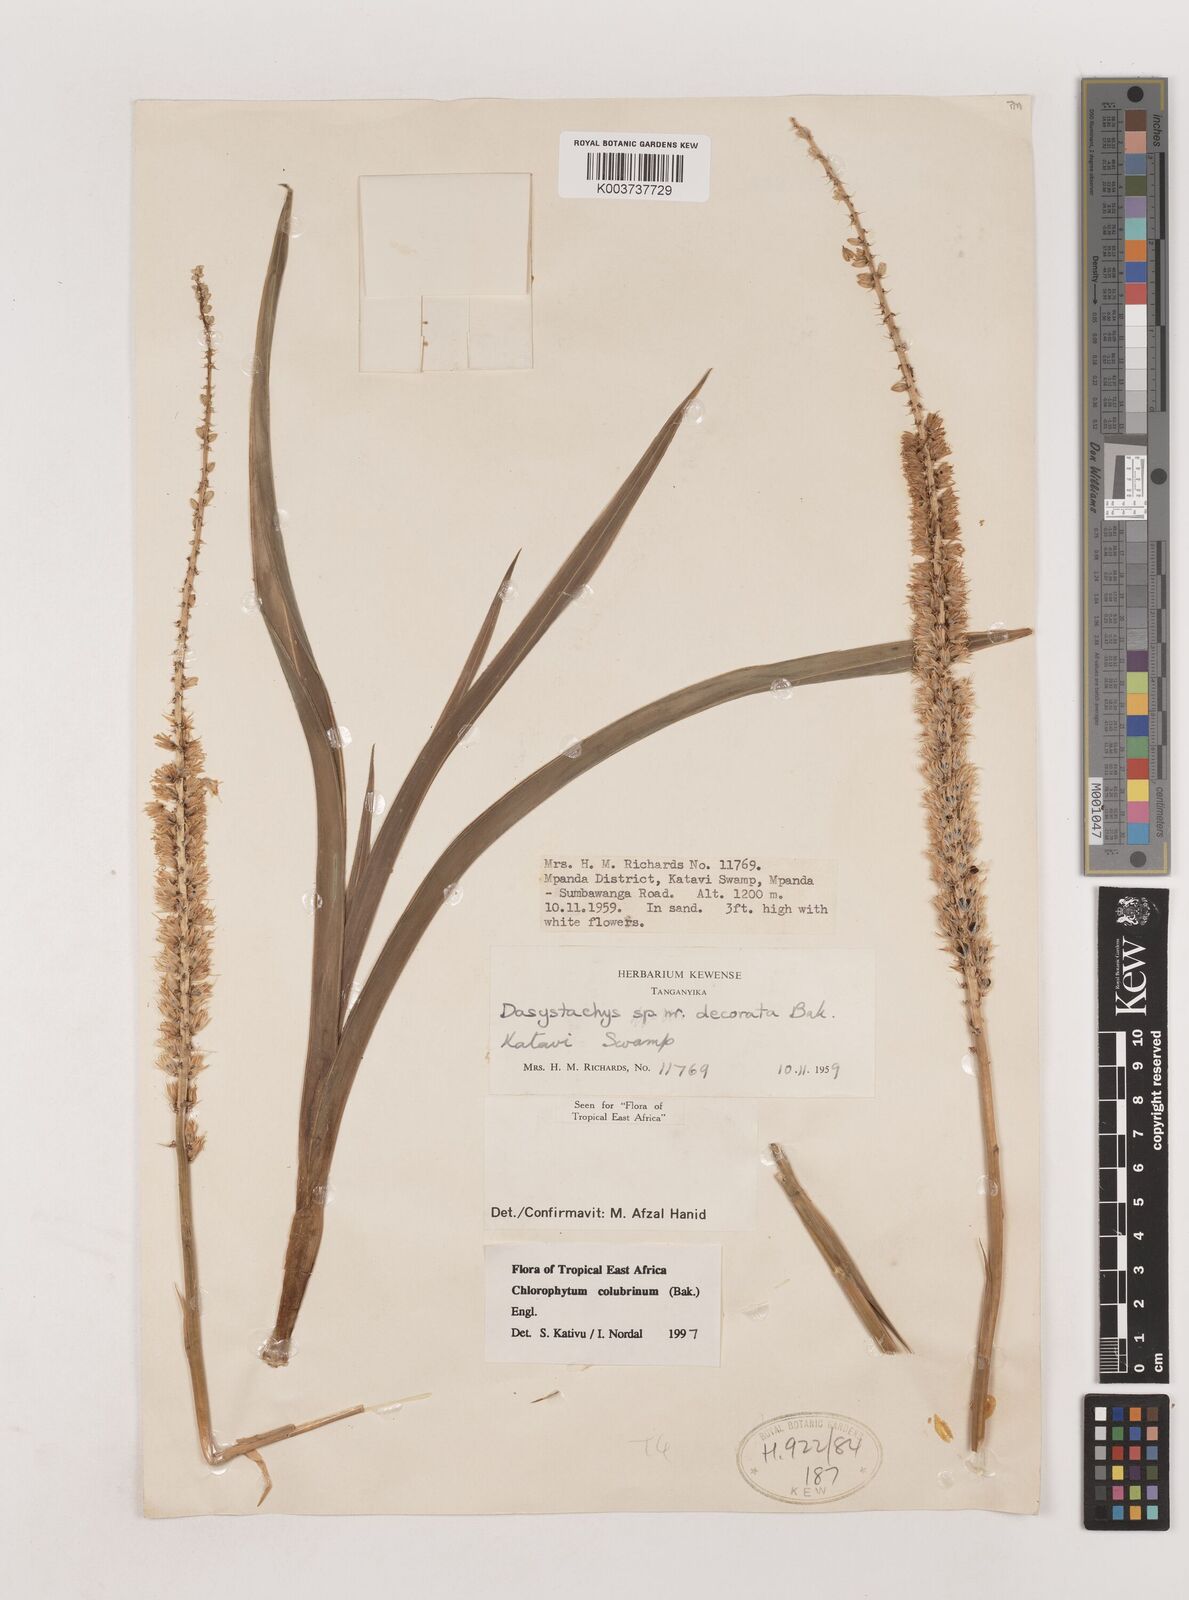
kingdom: Plantae
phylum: Tracheophyta
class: Liliopsida
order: Asparagales
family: Asparagaceae
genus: Chlorophytum
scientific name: Chlorophytum colubrinum
